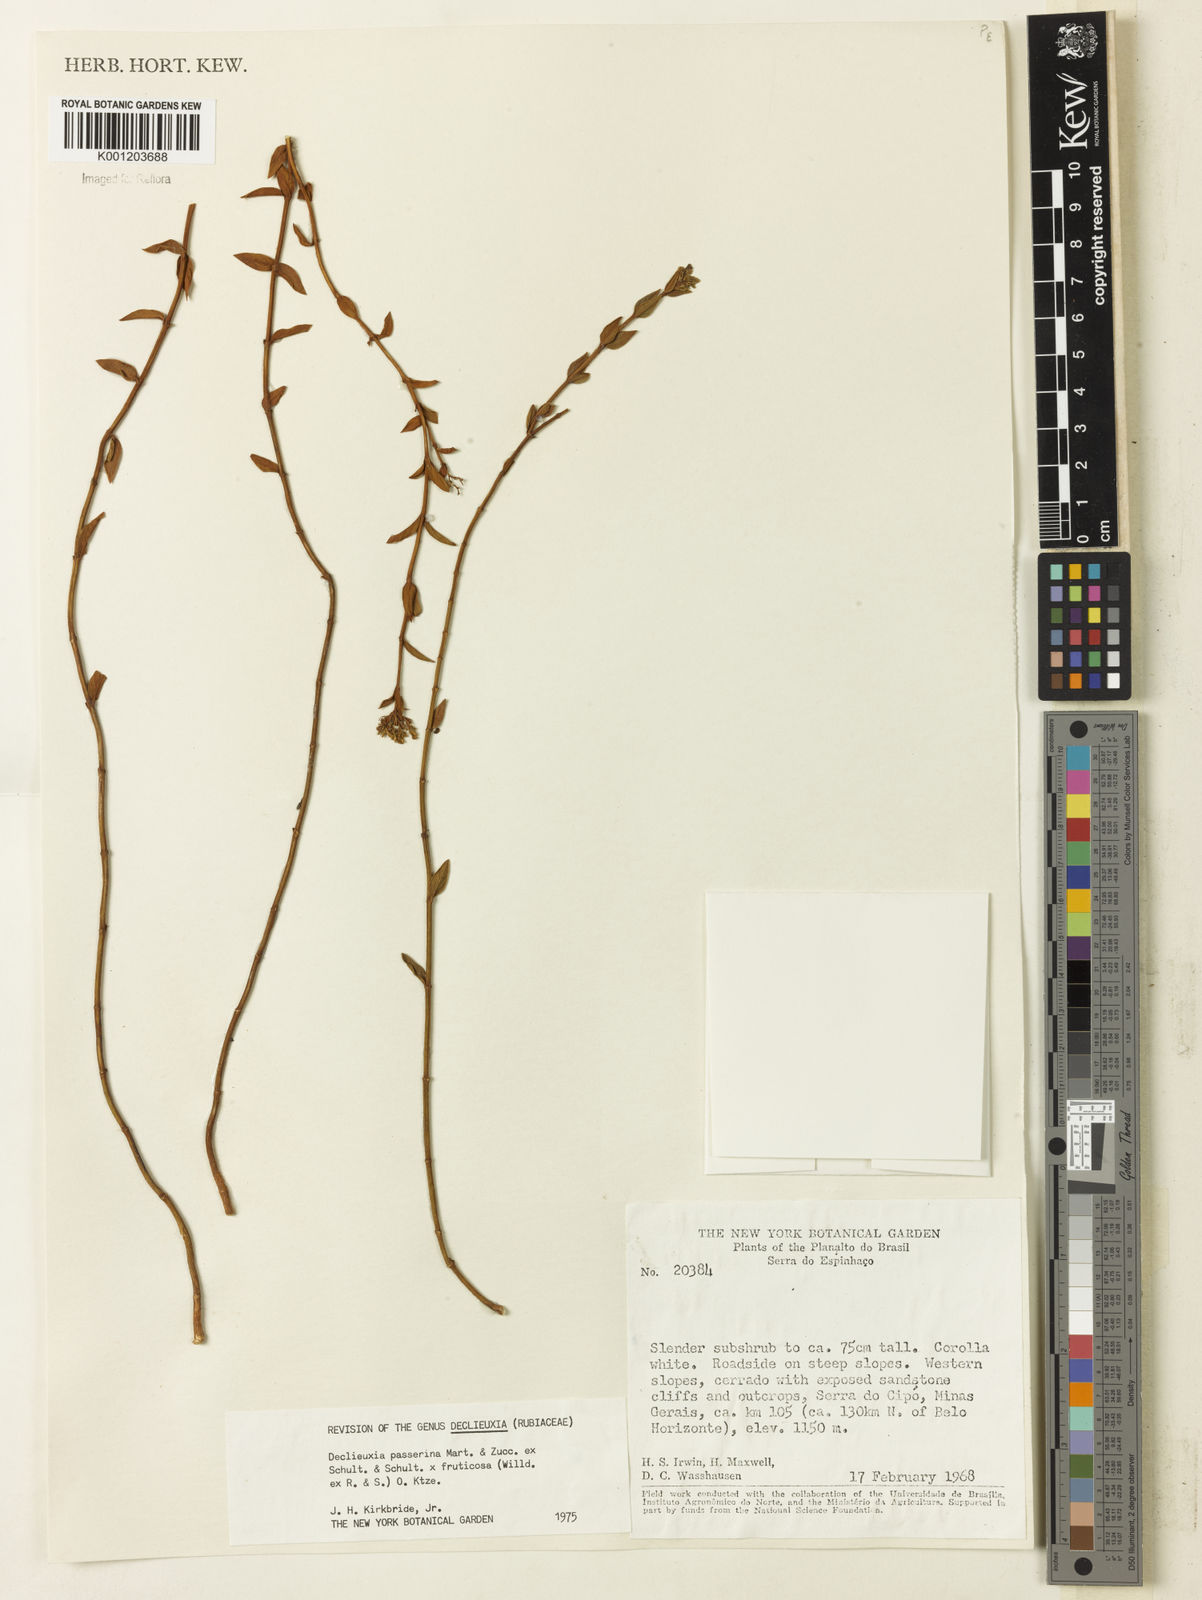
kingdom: Plantae
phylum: Tracheophyta
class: Magnoliopsida
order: Gentianales
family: Rubiaceae
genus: Declieuxia
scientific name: Declieuxia
